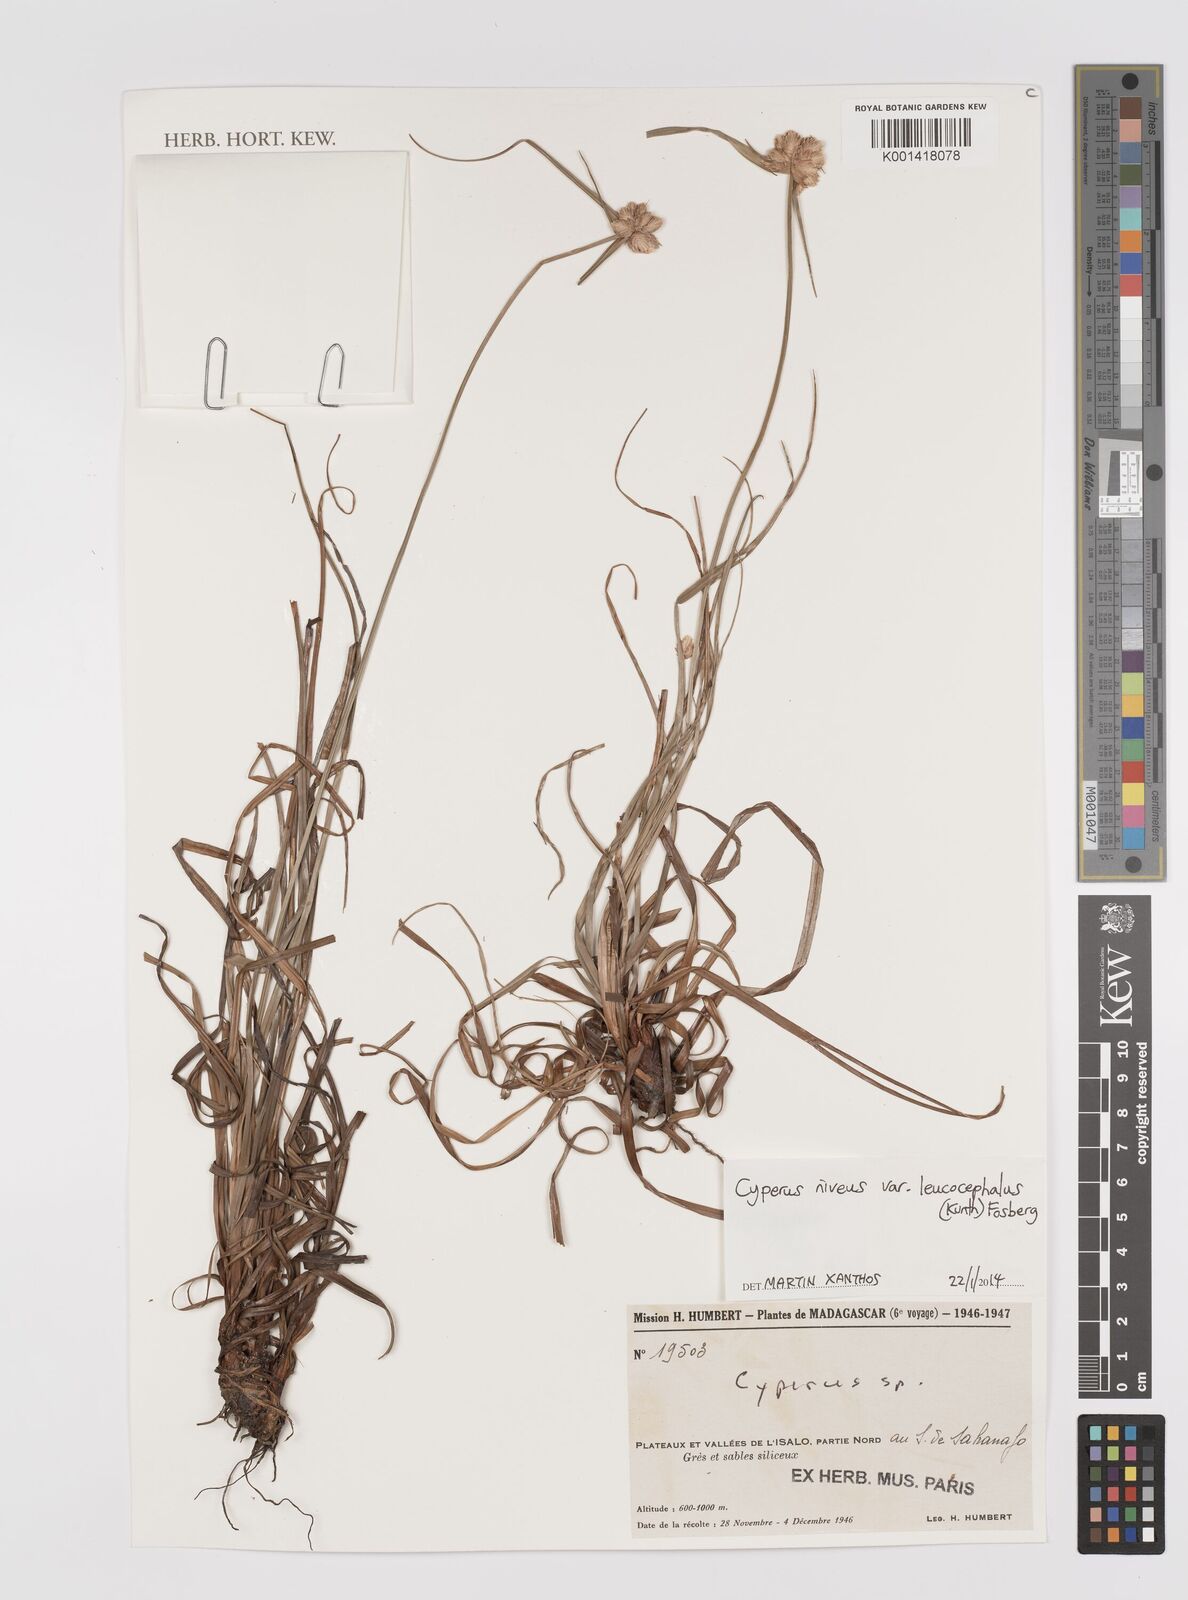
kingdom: Plantae
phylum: Tracheophyta
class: Liliopsida
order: Poales
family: Cyperaceae
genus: Cyperus
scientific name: Cyperus niveus
